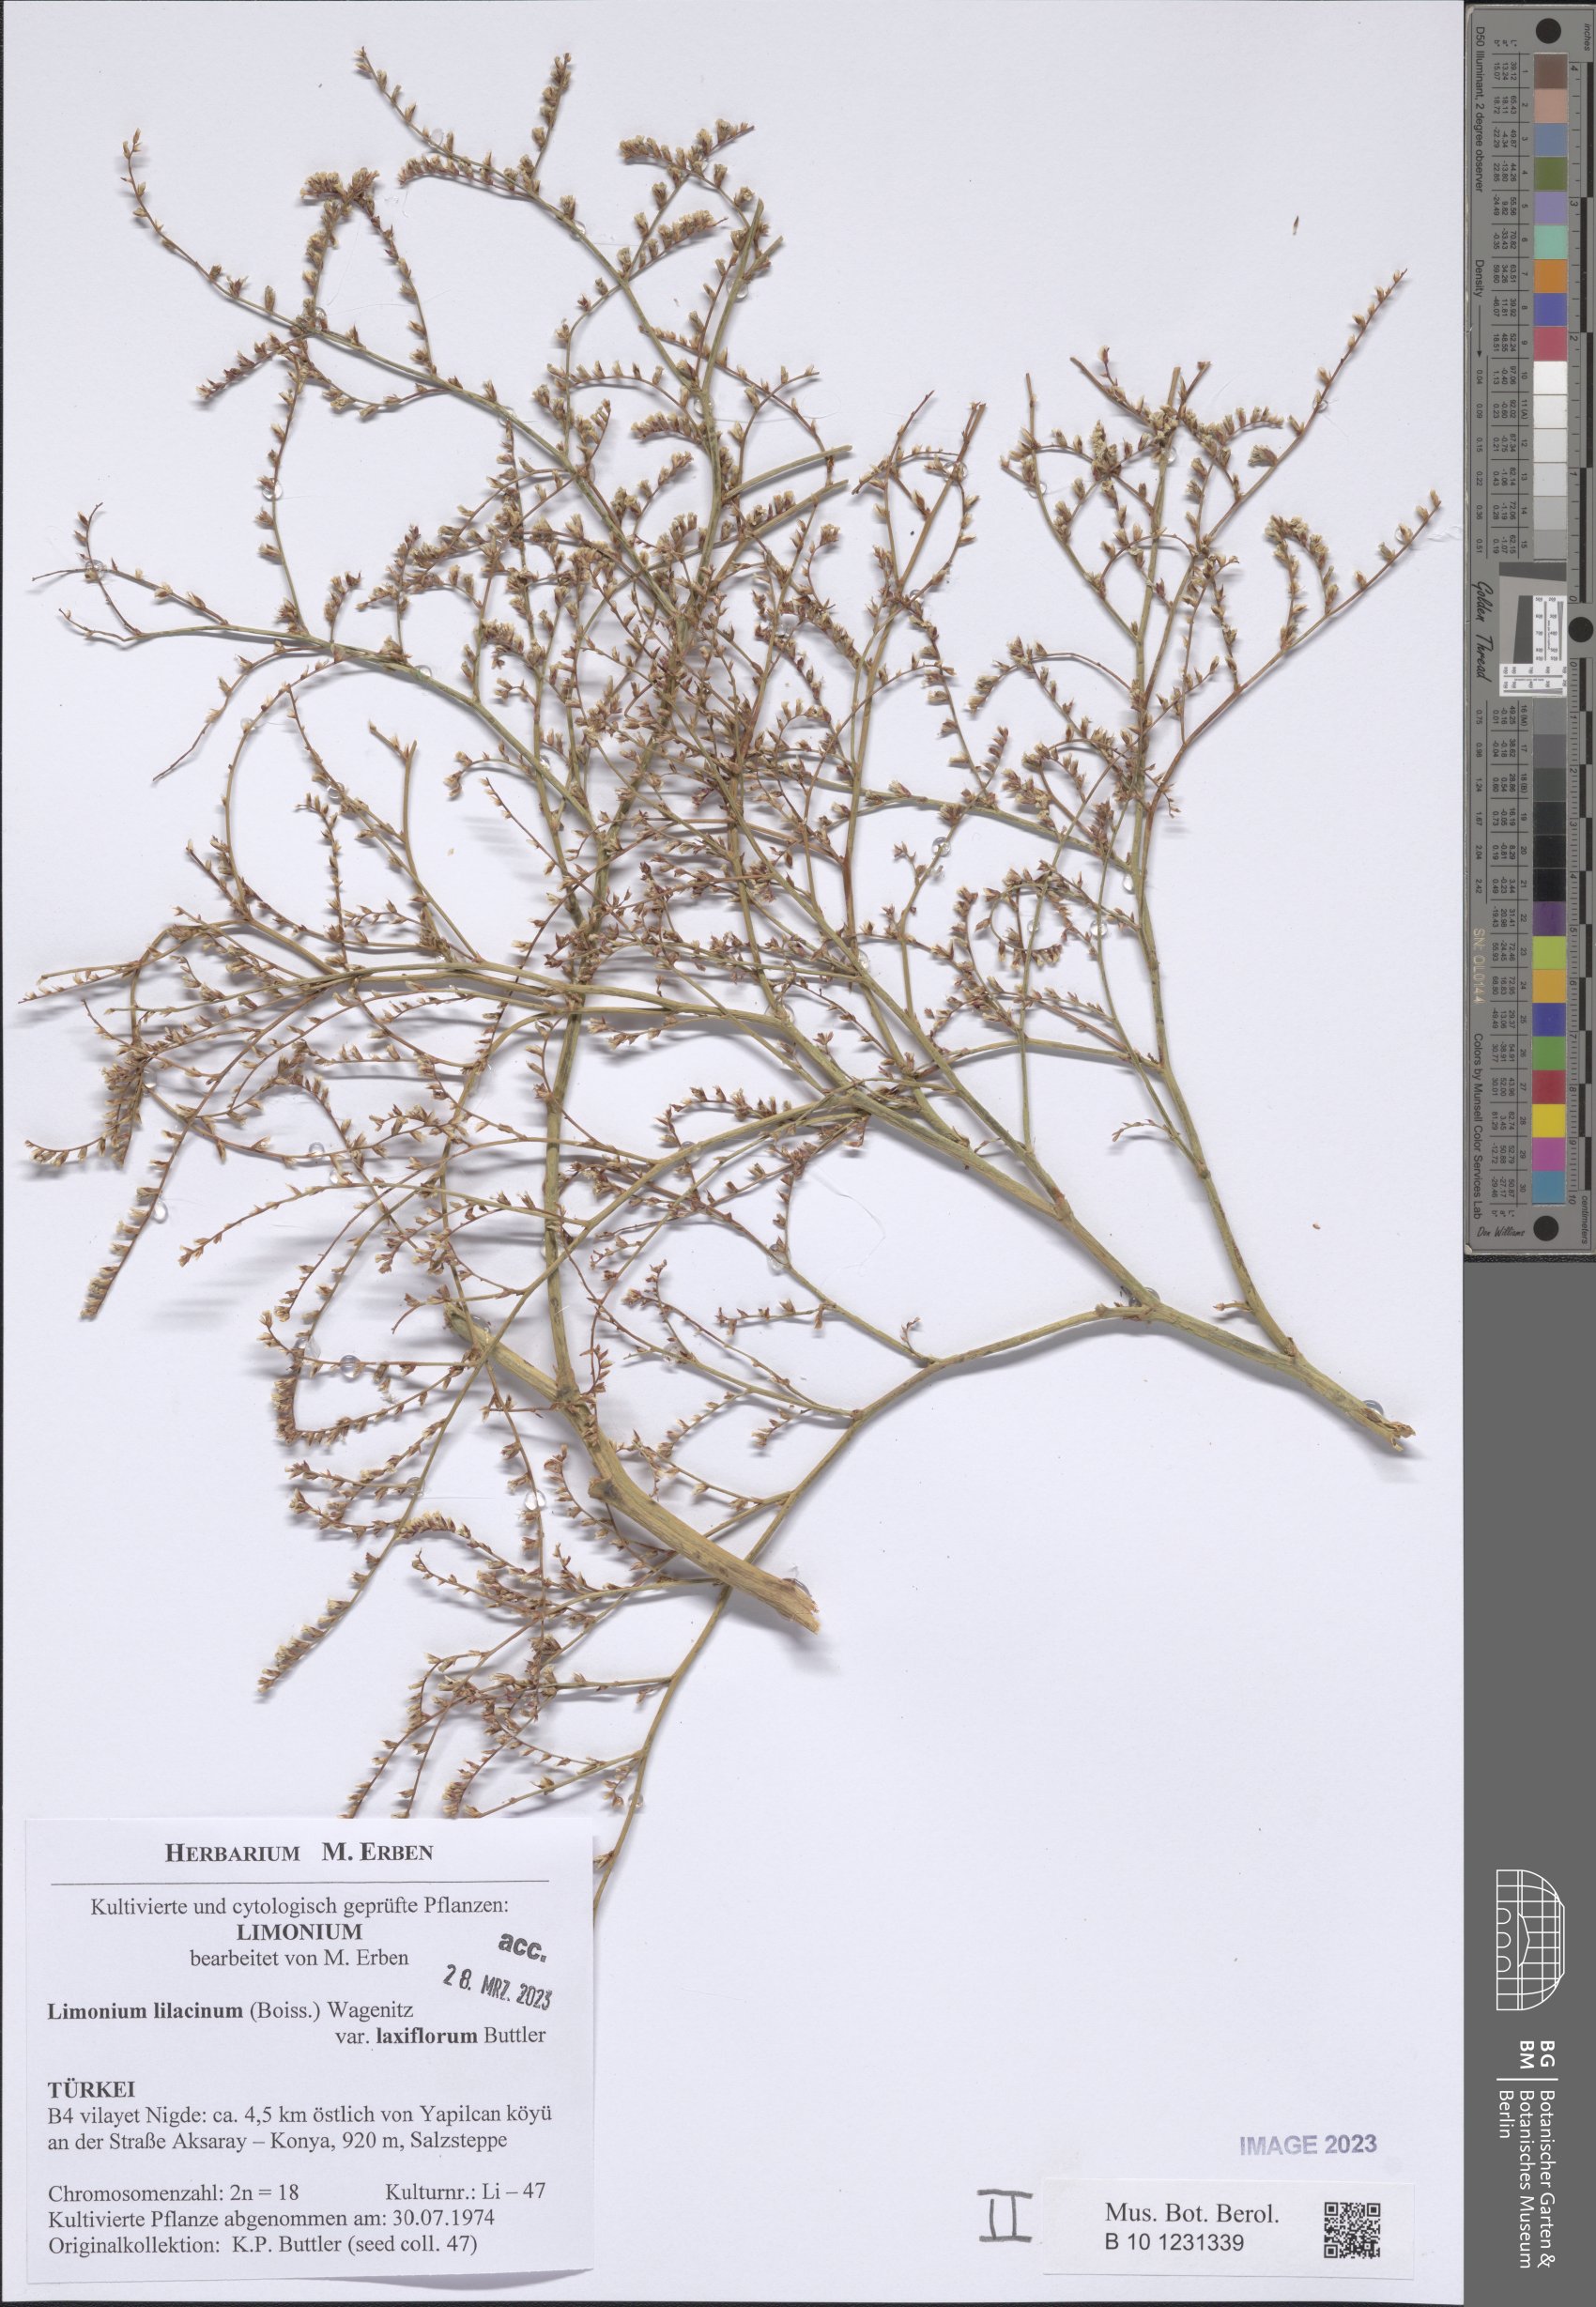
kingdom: Plantae
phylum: Tracheophyta
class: Magnoliopsida
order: Caryophyllales
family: Plumbaginaceae
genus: Limonium
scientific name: Limonium lilacinum
